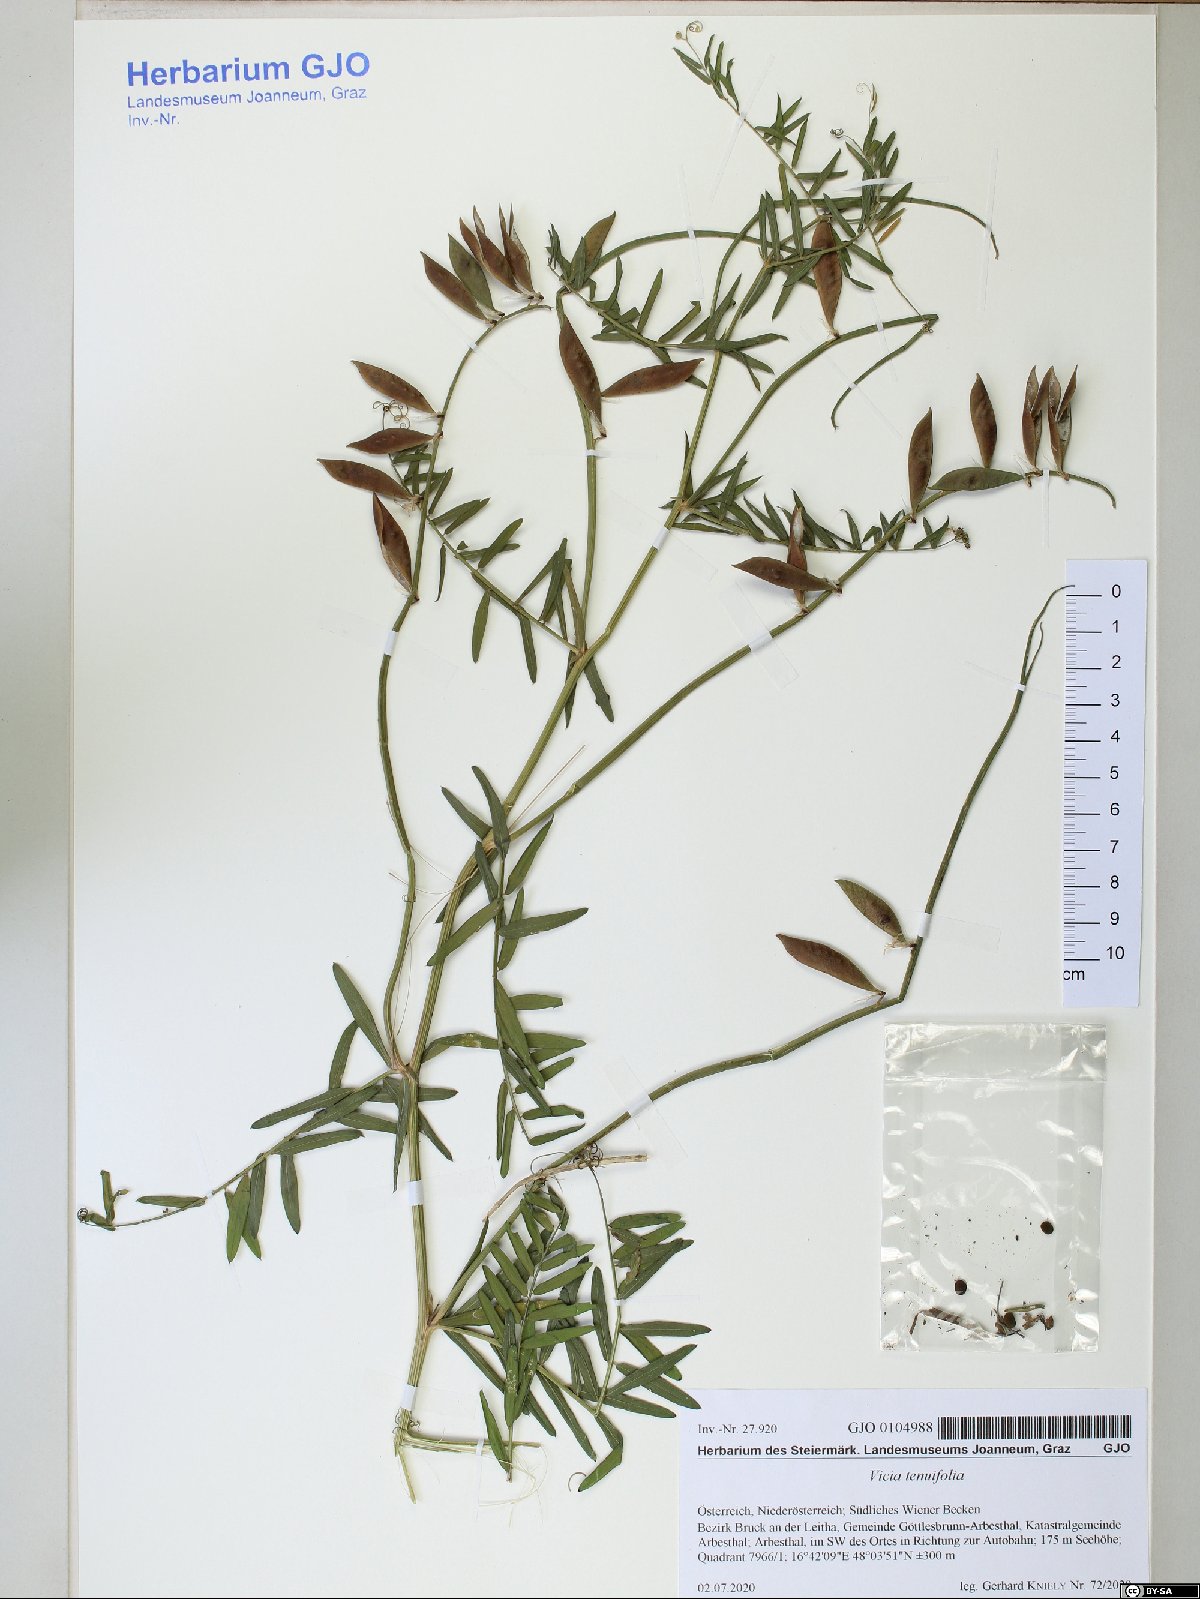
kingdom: Plantae
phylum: Tracheophyta
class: Magnoliopsida
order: Fabales
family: Fabaceae
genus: Vicia
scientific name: Vicia tenuifolia
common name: Fine-leaved vetch
